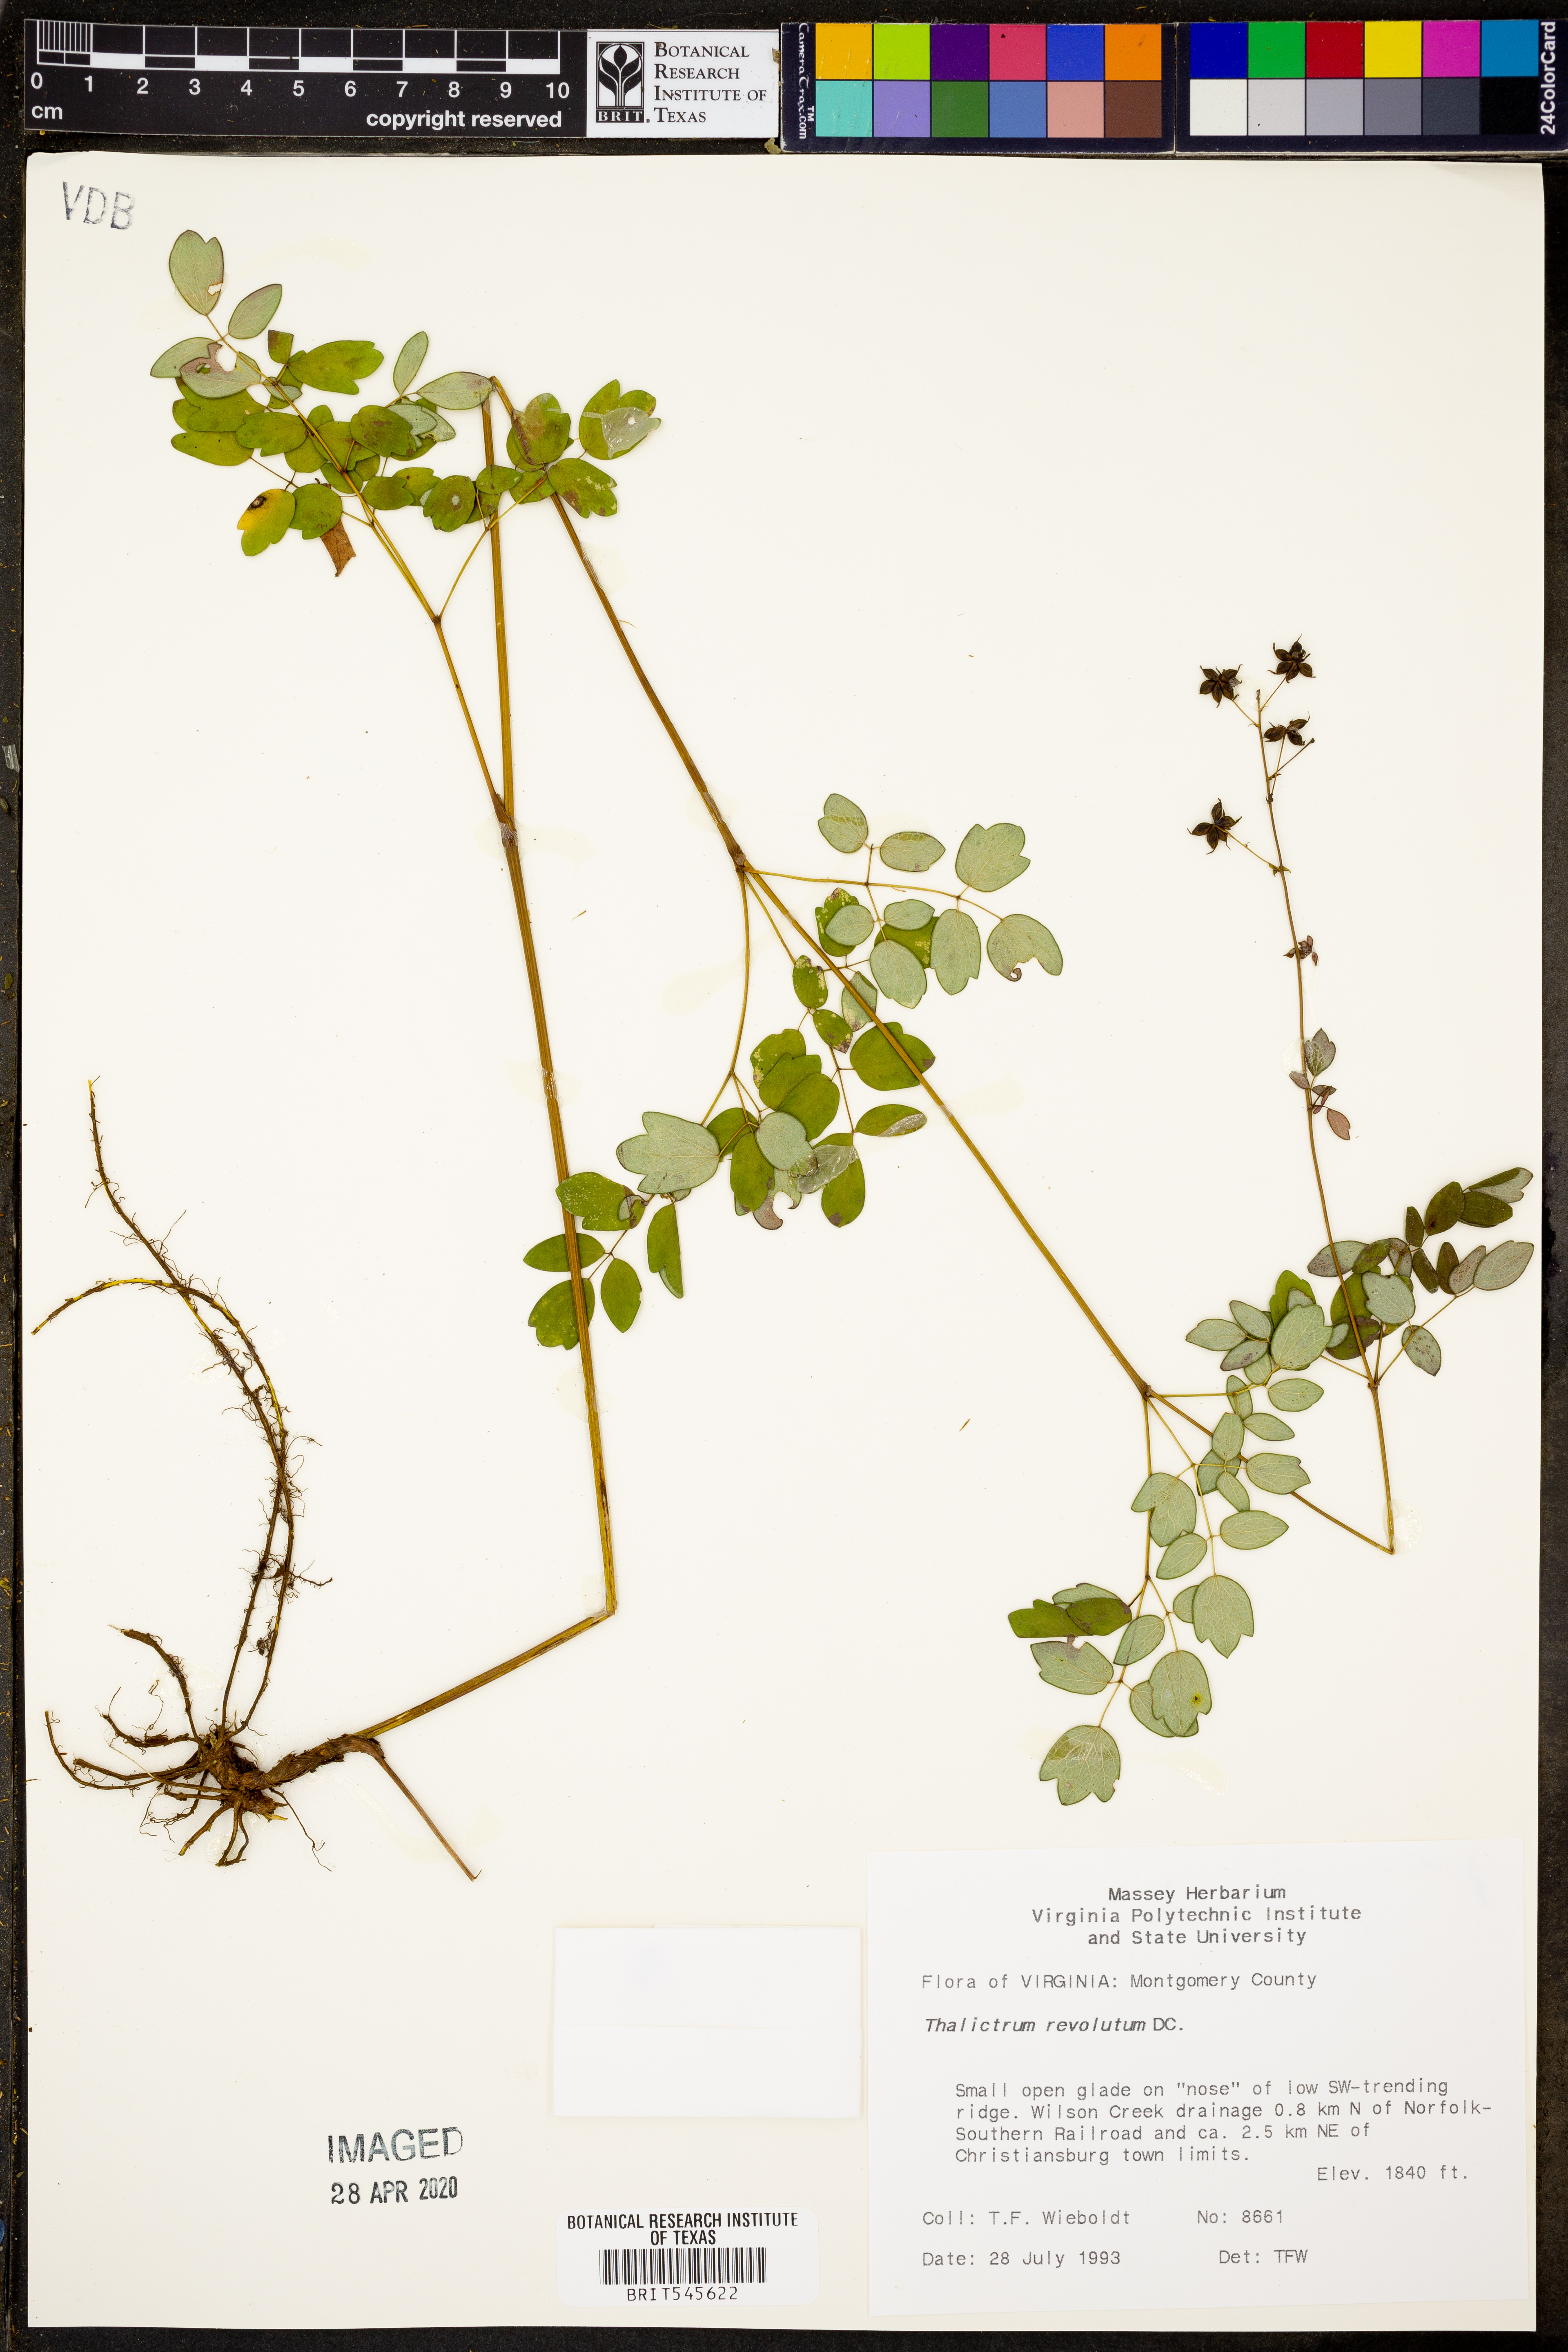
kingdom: Plantae
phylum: Tracheophyta
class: Magnoliopsida
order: Ranunculales
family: Ranunculaceae
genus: Thalictrum
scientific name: Thalictrum revolutum
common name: Waxy meadow-rue
